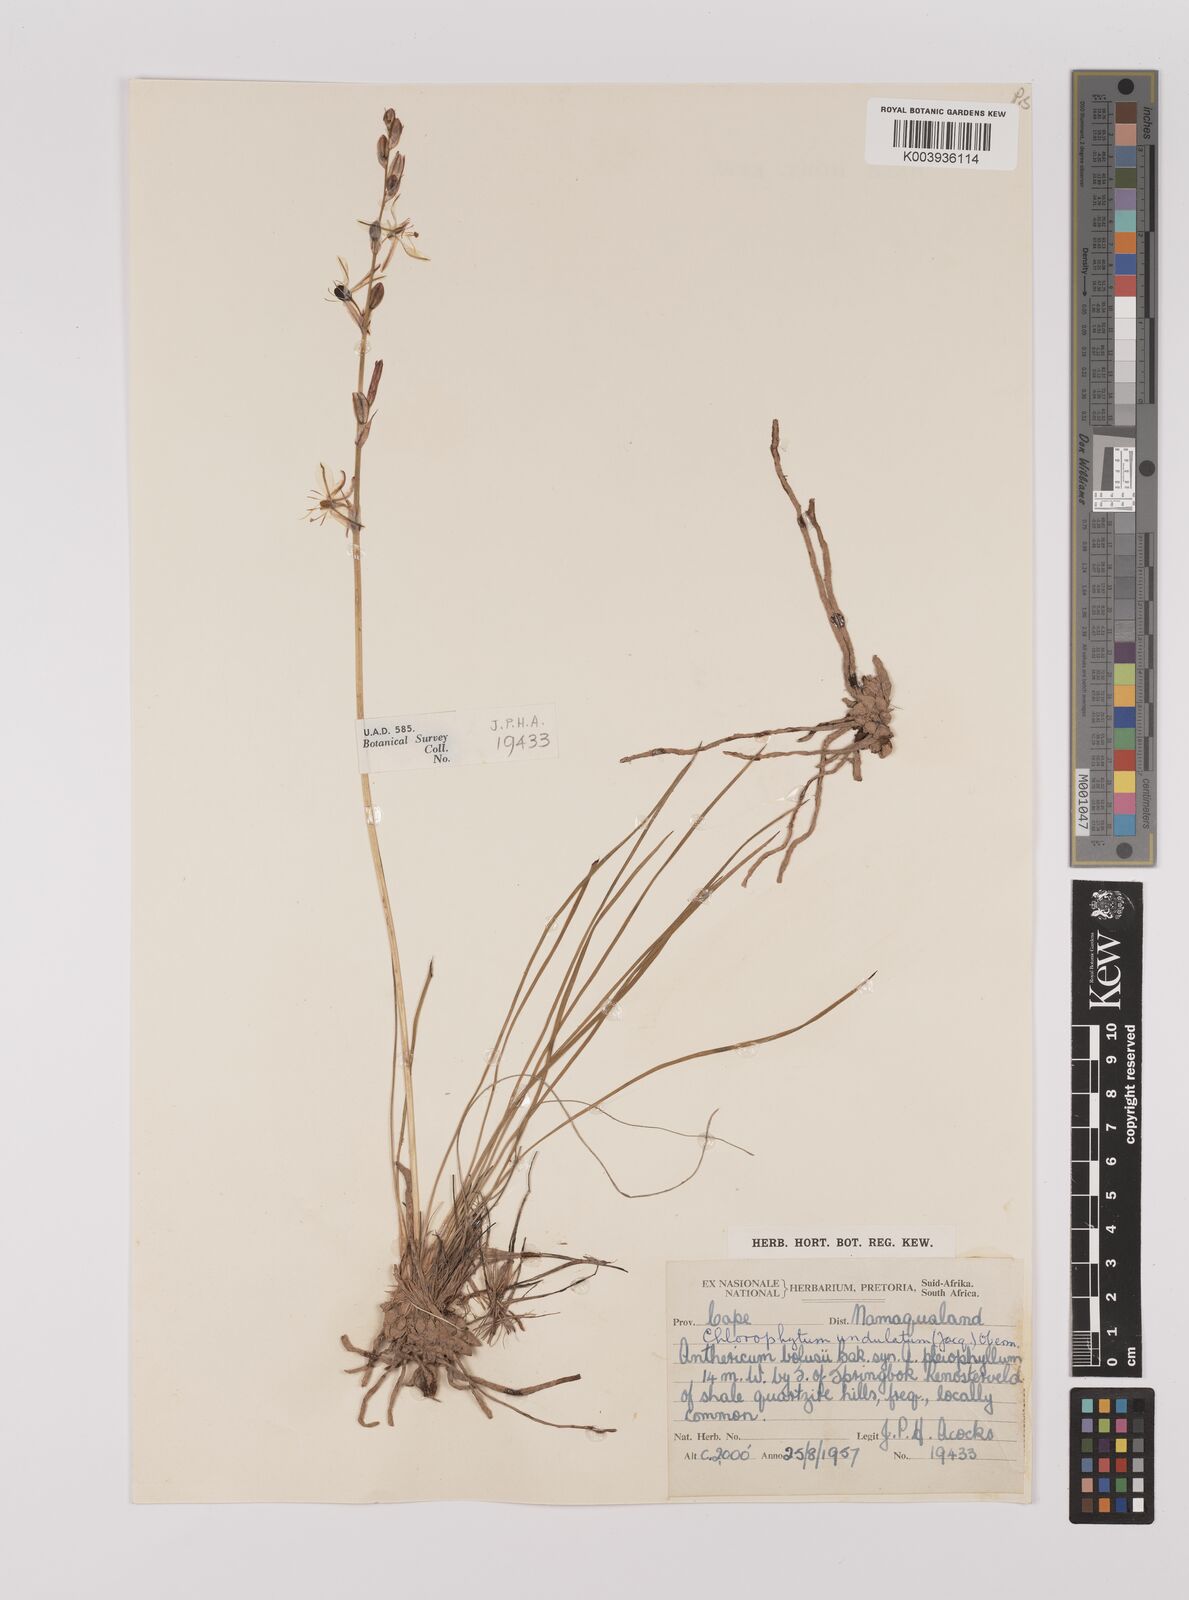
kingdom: Plantae
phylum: Tracheophyta
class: Liliopsida
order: Asparagales
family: Asparagaceae
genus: Chlorophytum
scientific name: Chlorophytum graminifolium
